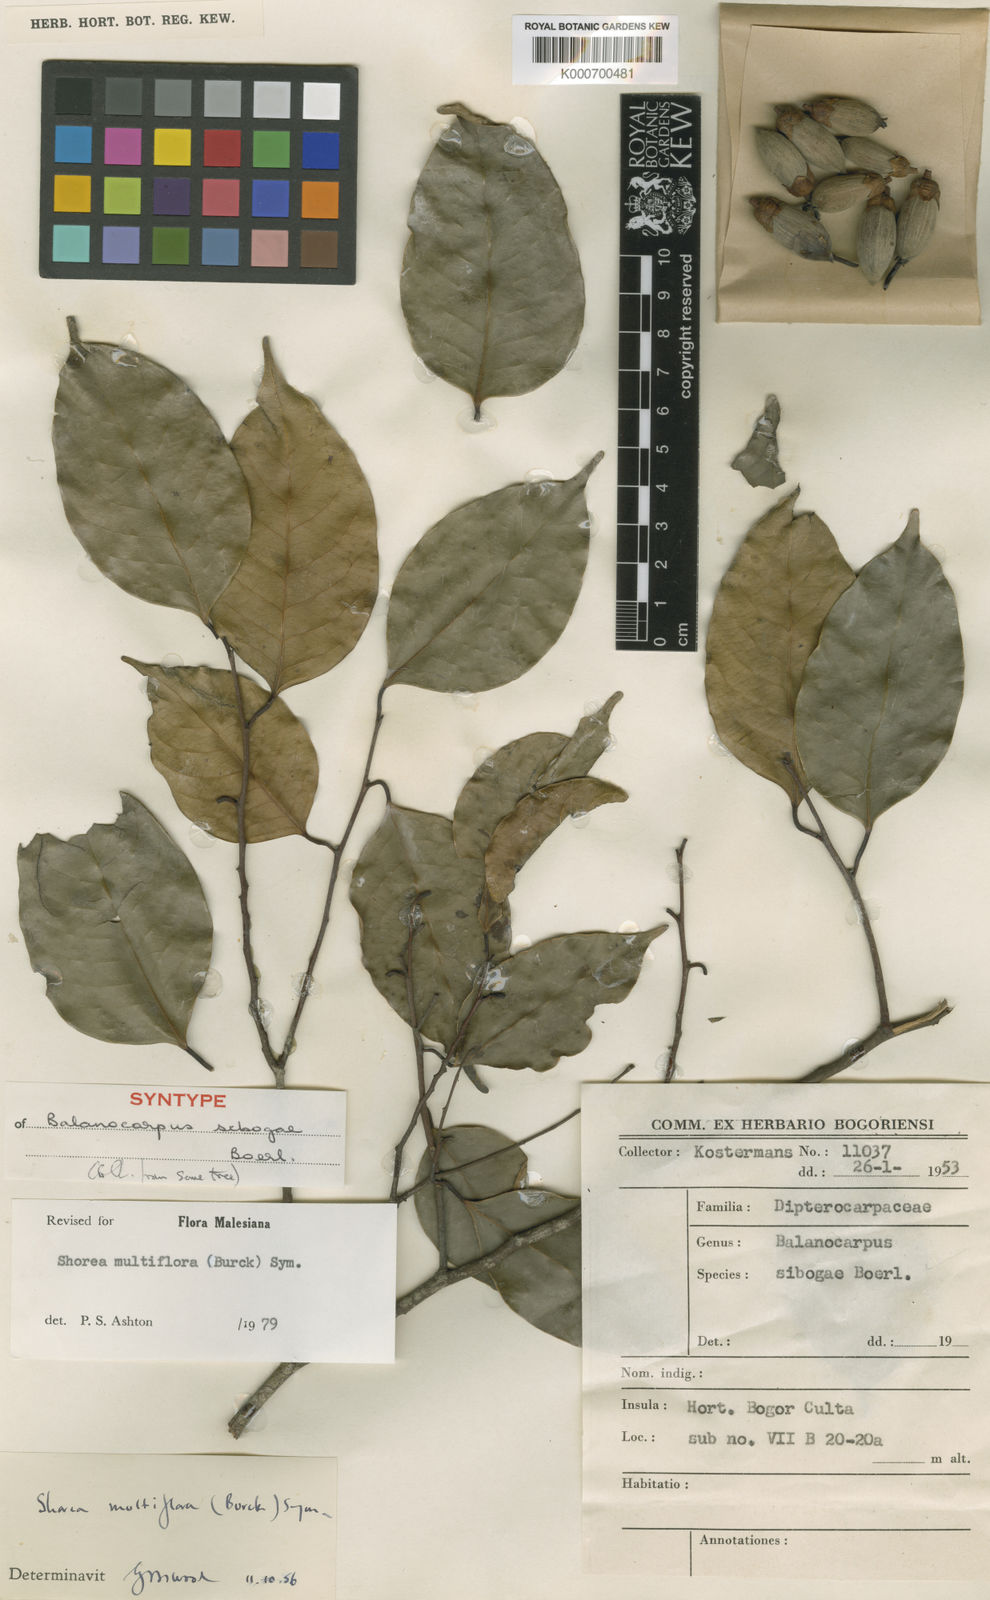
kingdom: Plantae
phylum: Tracheophyta
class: Magnoliopsida
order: Malvales
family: Dipterocarpaceae
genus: Shorea
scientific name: Shorea multiflora
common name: Yellow meranti
